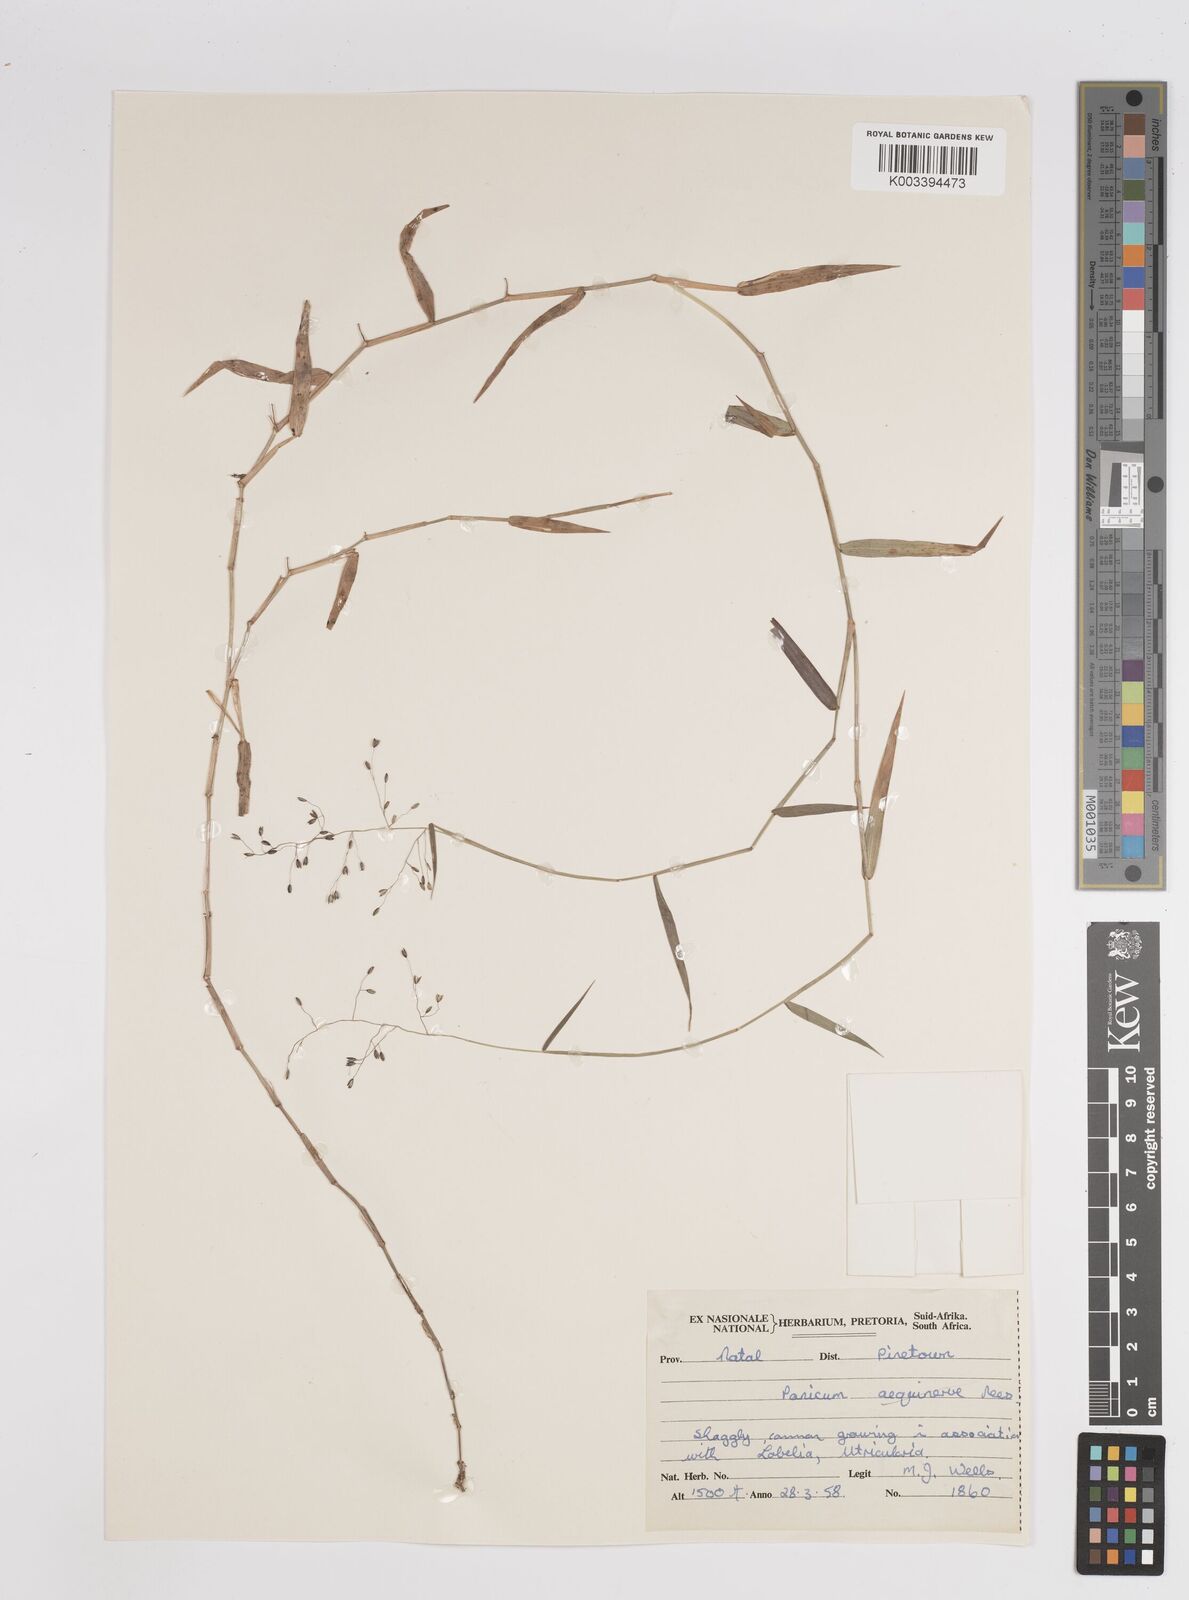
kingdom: Plantae
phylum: Tracheophyta
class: Liliopsida
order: Poales
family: Poaceae
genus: Panicum
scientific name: Panicum
